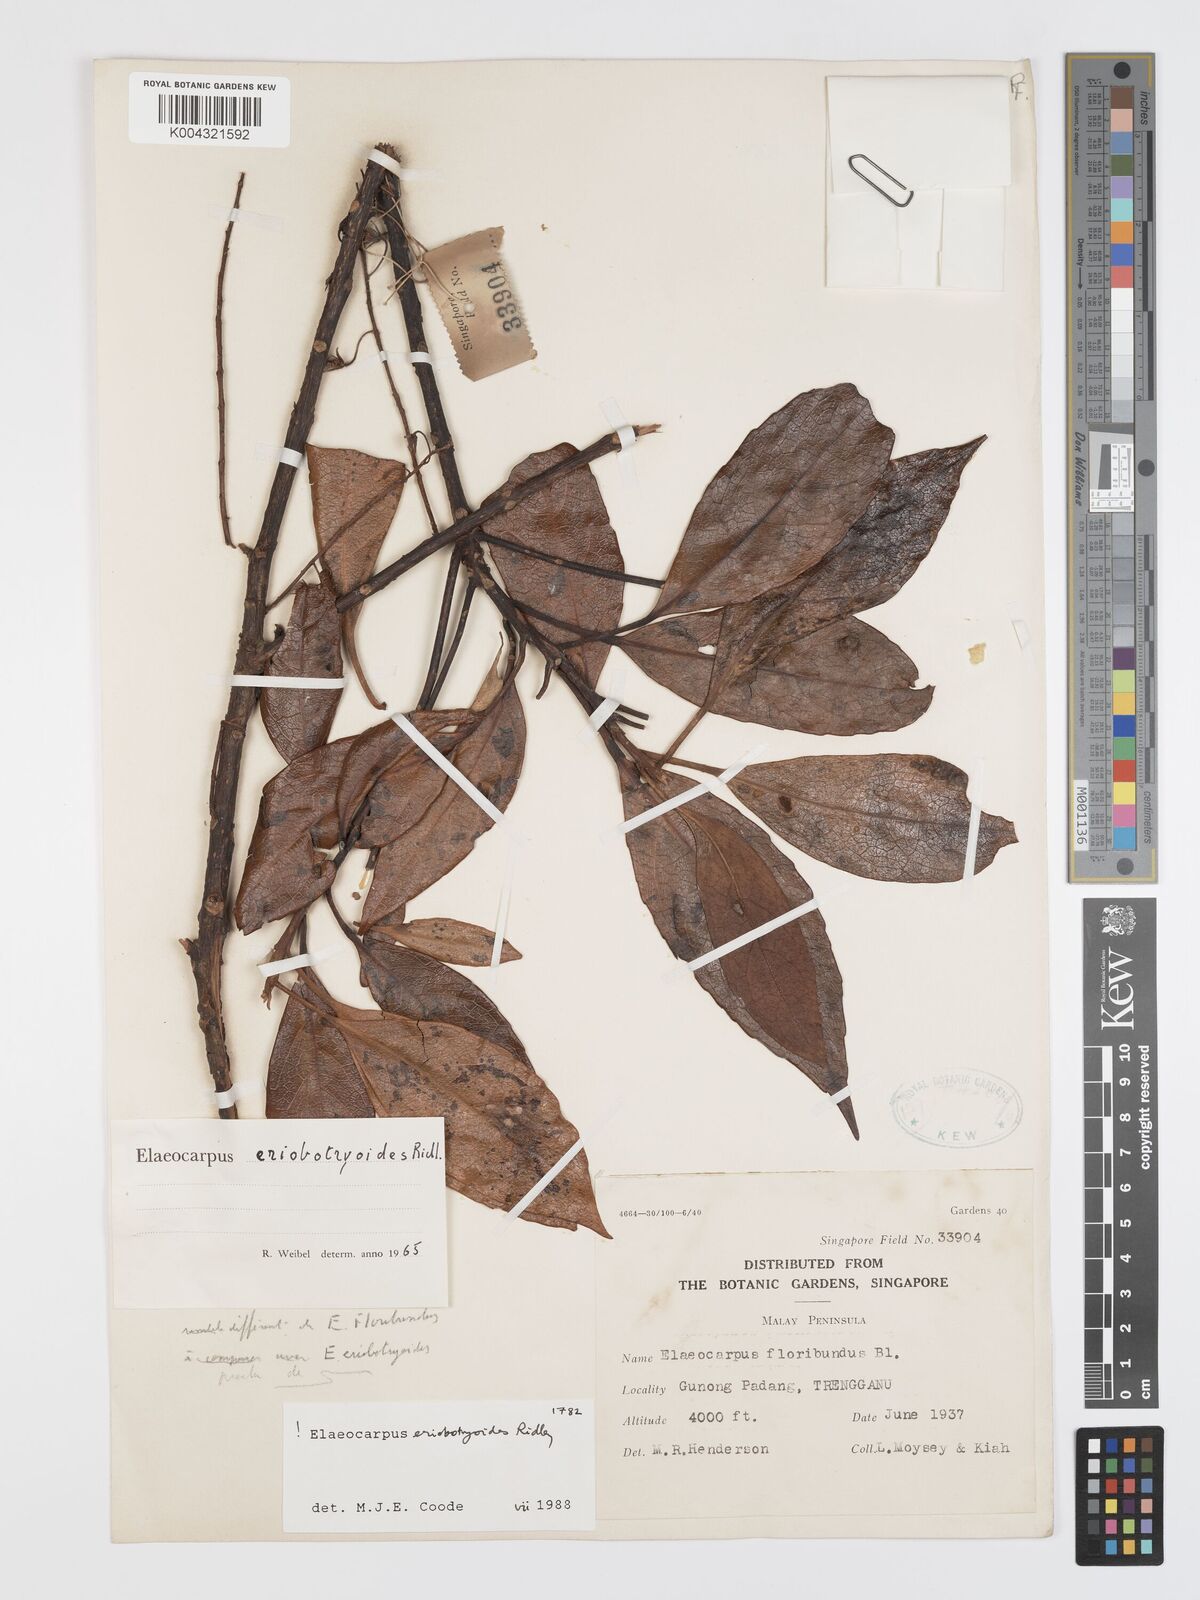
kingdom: Plantae
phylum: Tracheophyta
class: Magnoliopsida
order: Oxalidales
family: Elaeocarpaceae
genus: Elaeocarpus
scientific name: Elaeocarpus eriobotryoides
